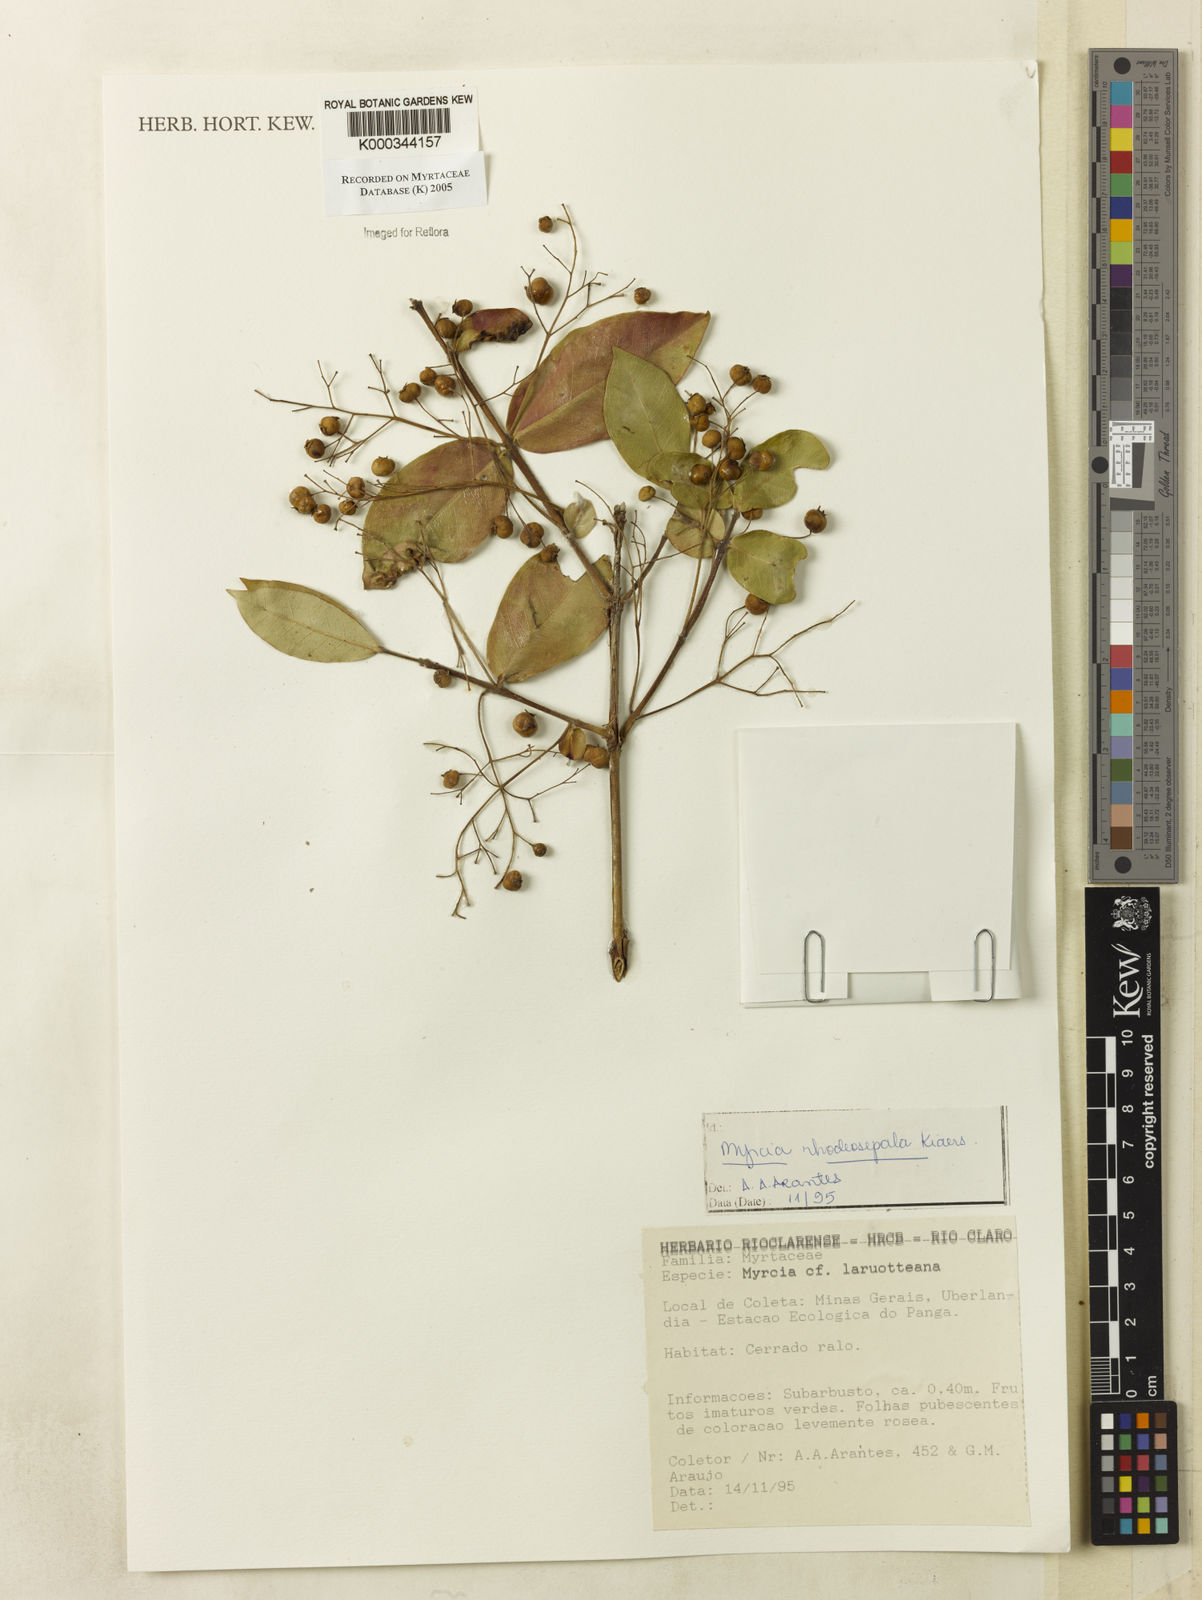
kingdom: Plantae
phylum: Tracheophyta
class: Magnoliopsida
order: Myrtales
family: Myrtaceae
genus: Myrcia
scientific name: Myrcia tomentosa
